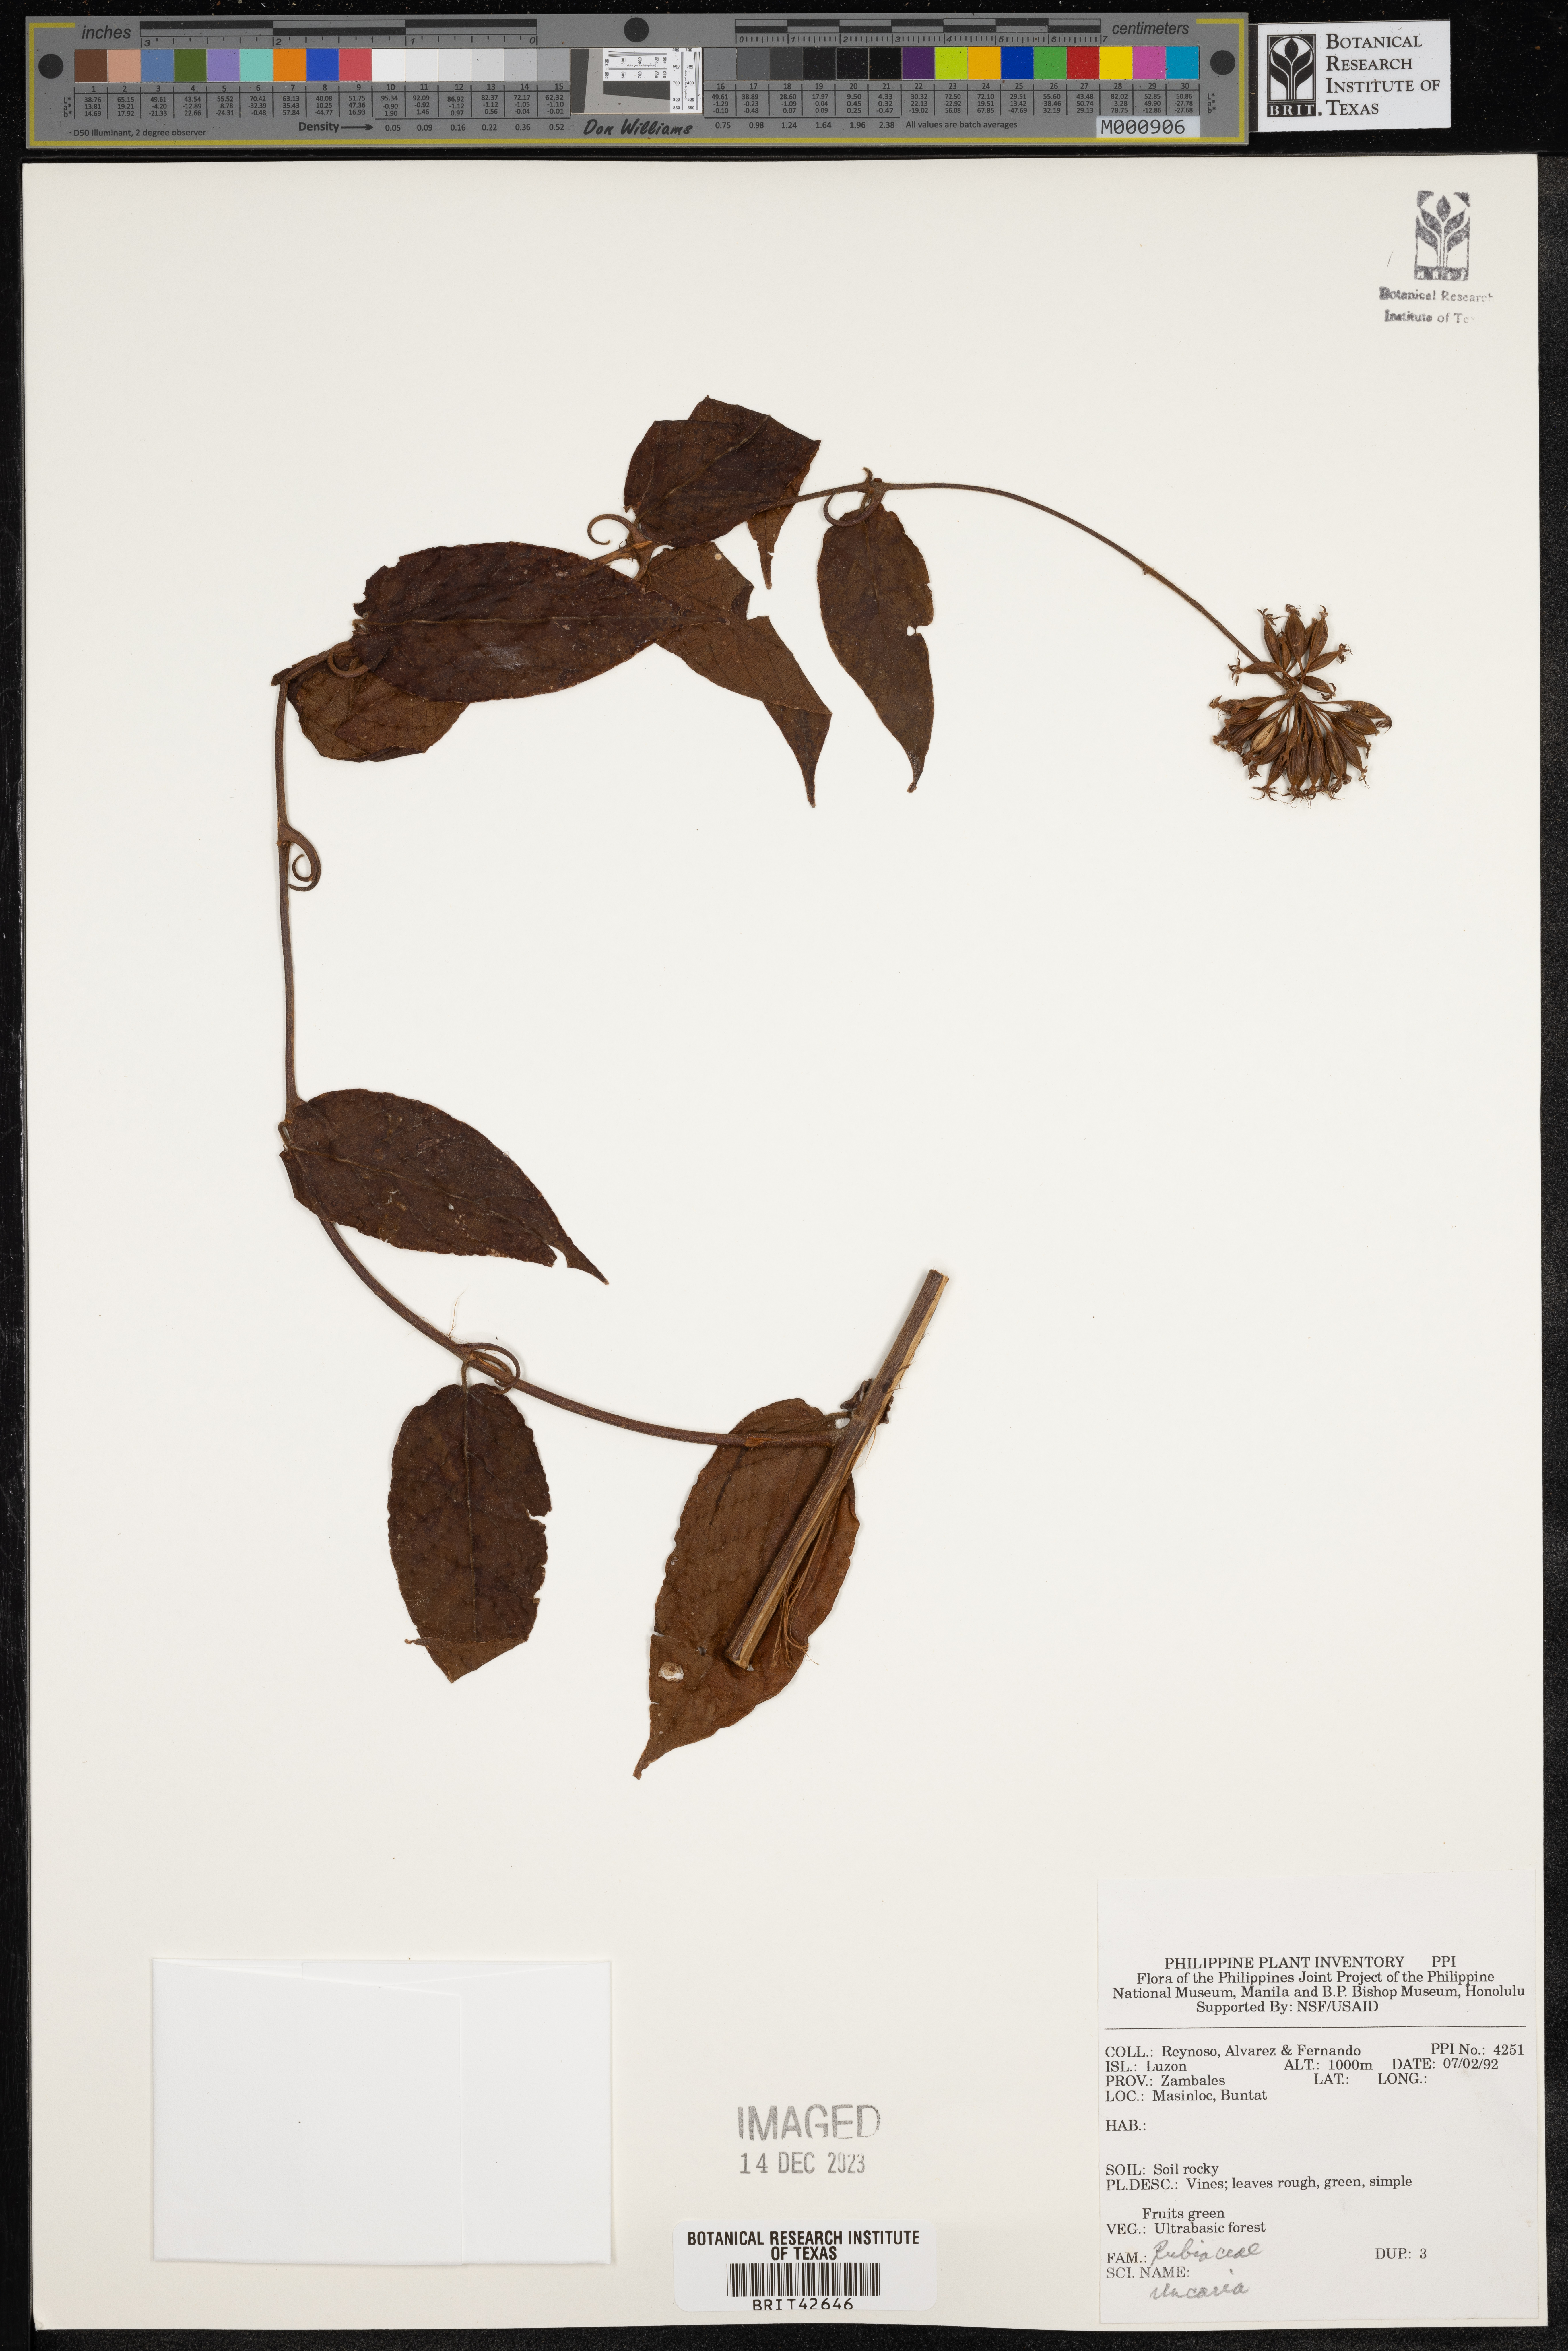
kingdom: Plantae
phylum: Tracheophyta
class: Magnoliopsida
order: Gentianales
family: Rubiaceae
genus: Uncaria
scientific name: Uncaria
